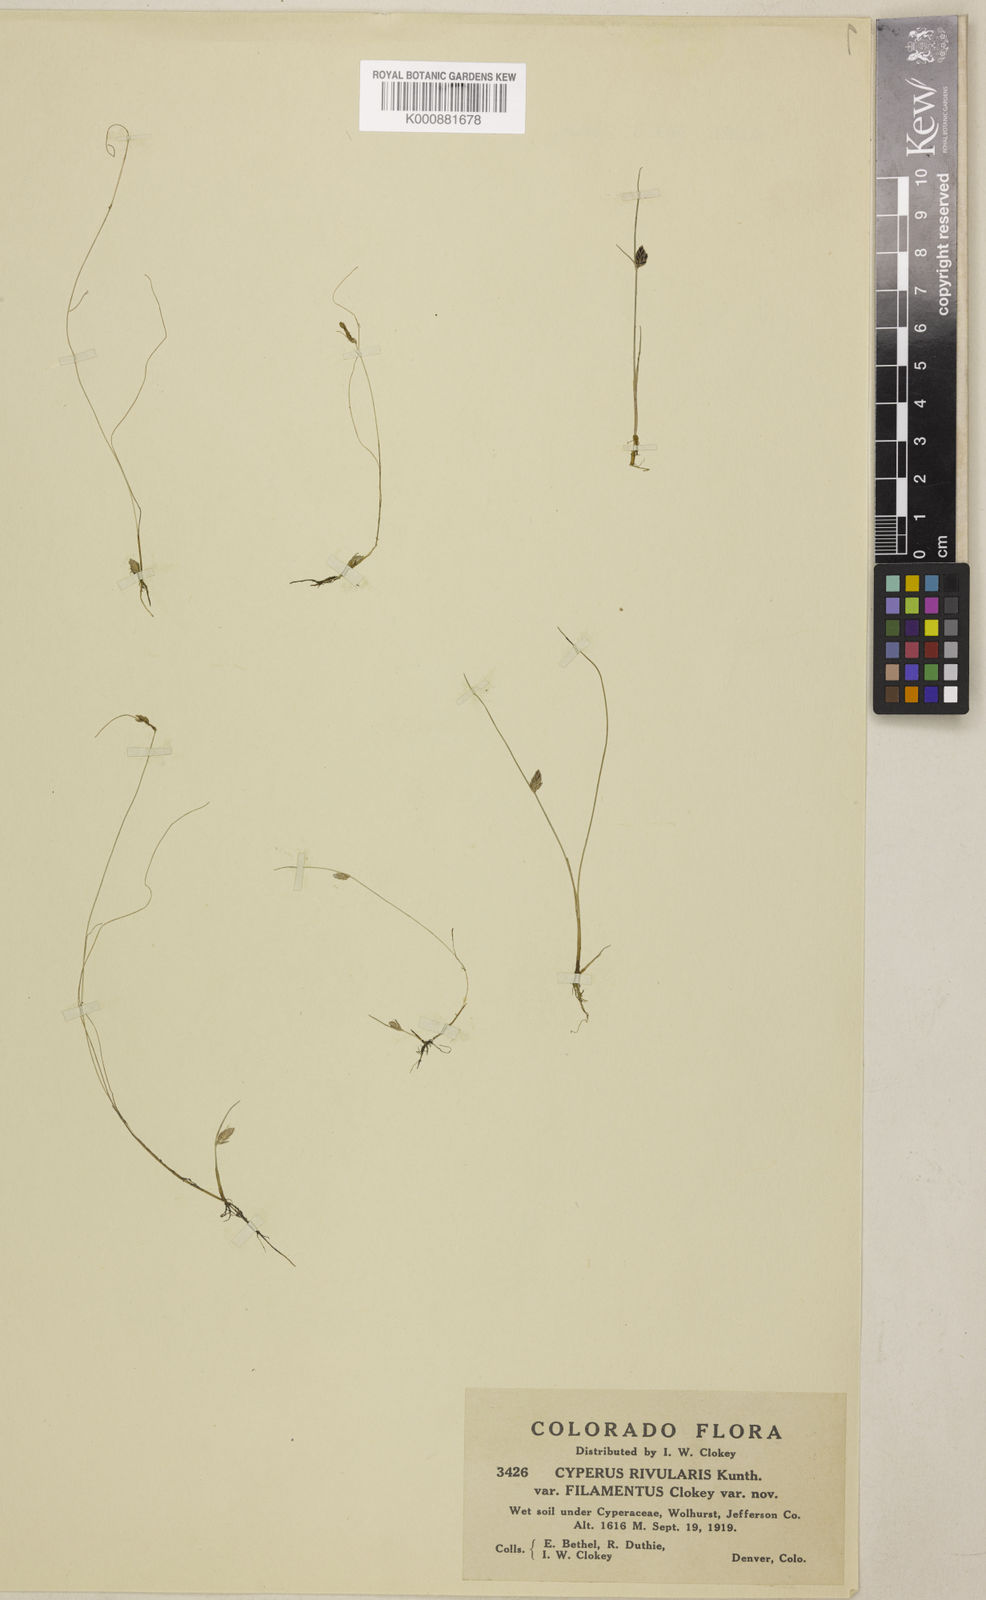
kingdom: Plantae
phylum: Tracheophyta
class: Liliopsida
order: Poales
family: Cyperaceae
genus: Cyperus
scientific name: Cyperus bipartitus
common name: Brook flatsedge
